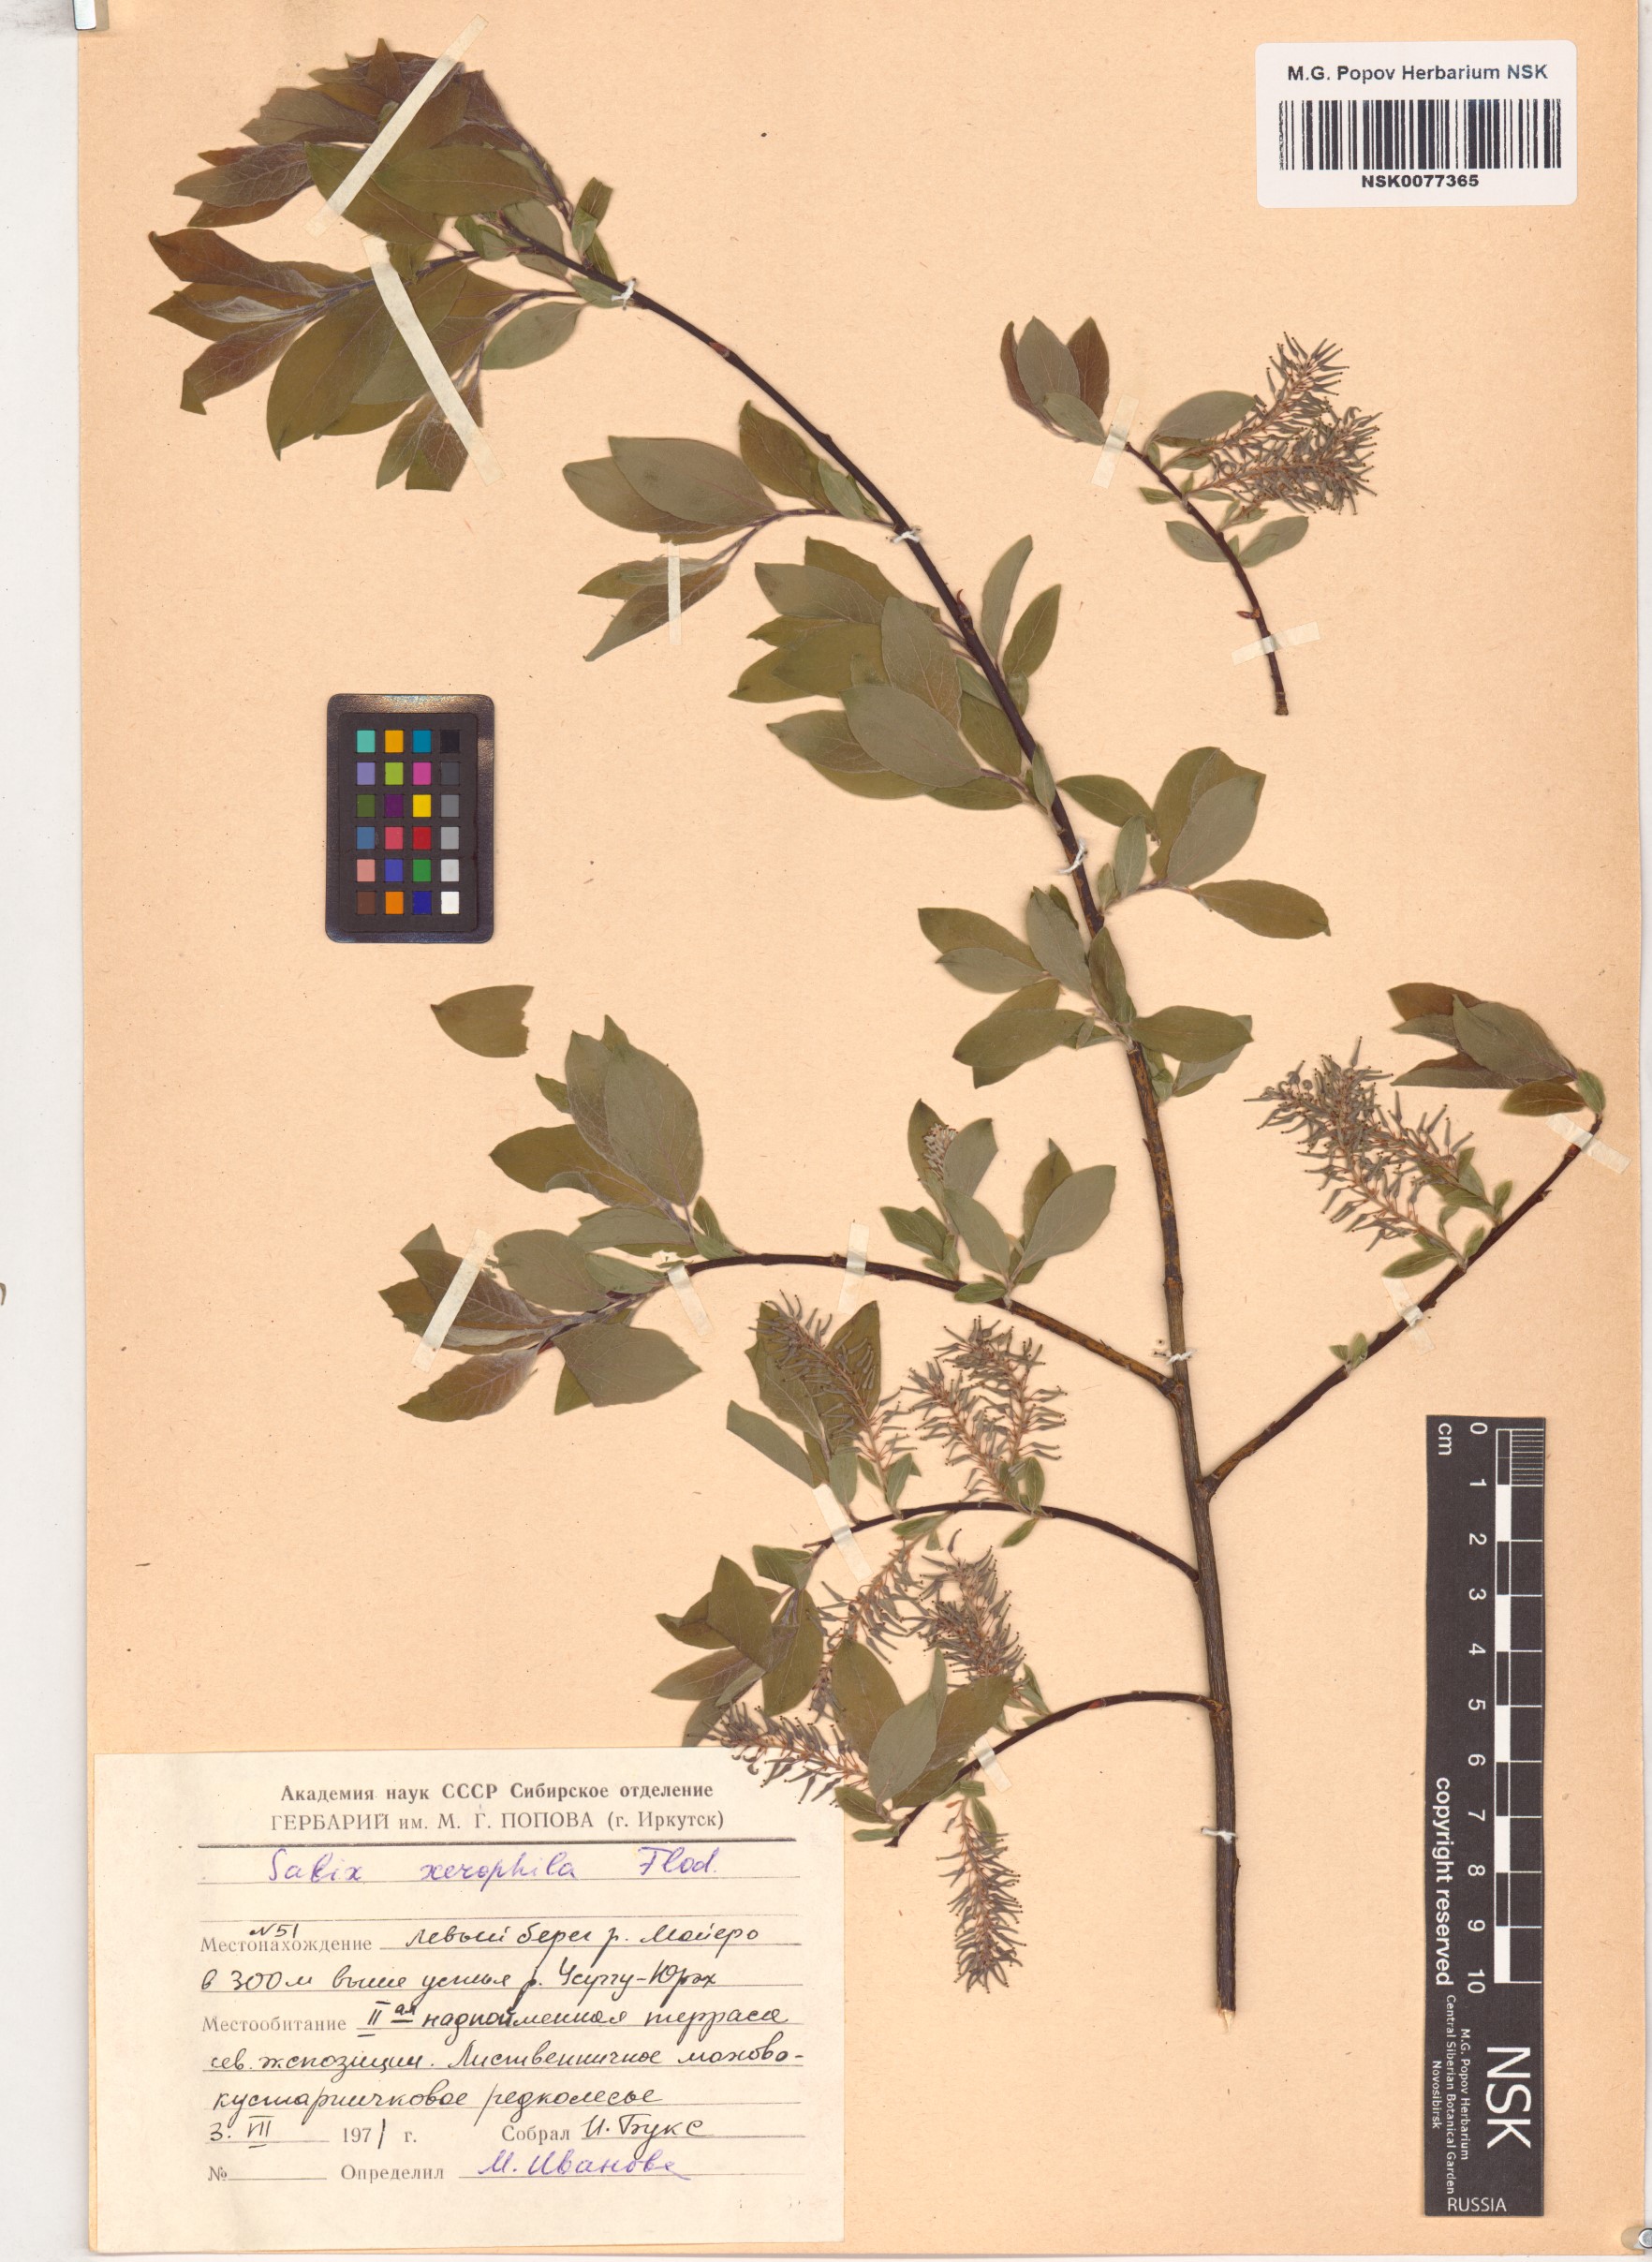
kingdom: Plantae
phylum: Tracheophyta
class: Magnoliopsida
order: Malpighiales
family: Salicaceae
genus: Salix
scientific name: Salix bebbiana
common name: Bebb's willow
